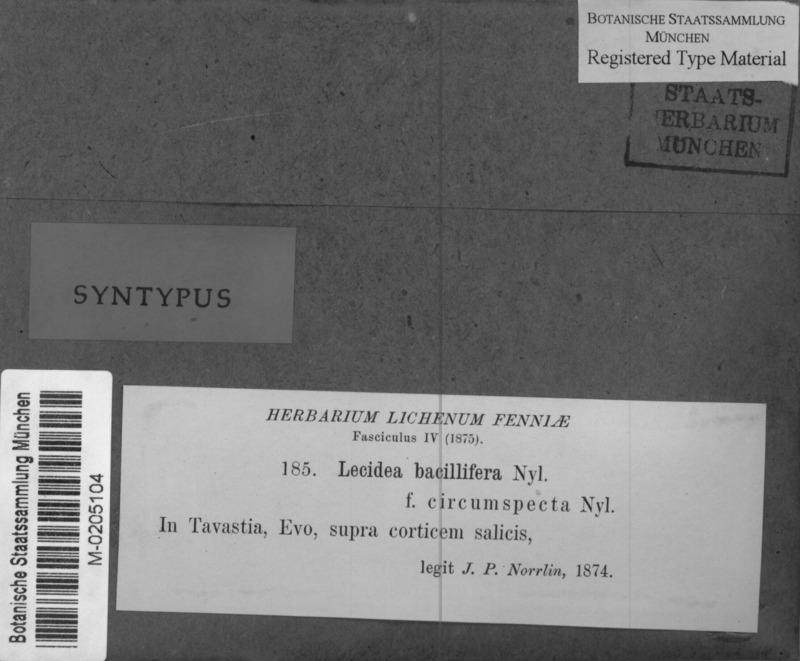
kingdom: Fungi
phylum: Ascomycota
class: Lecanoromycetes
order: Lecanorales
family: Ramalinaceae
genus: Bacidia
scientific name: Bacidia circumspecta
